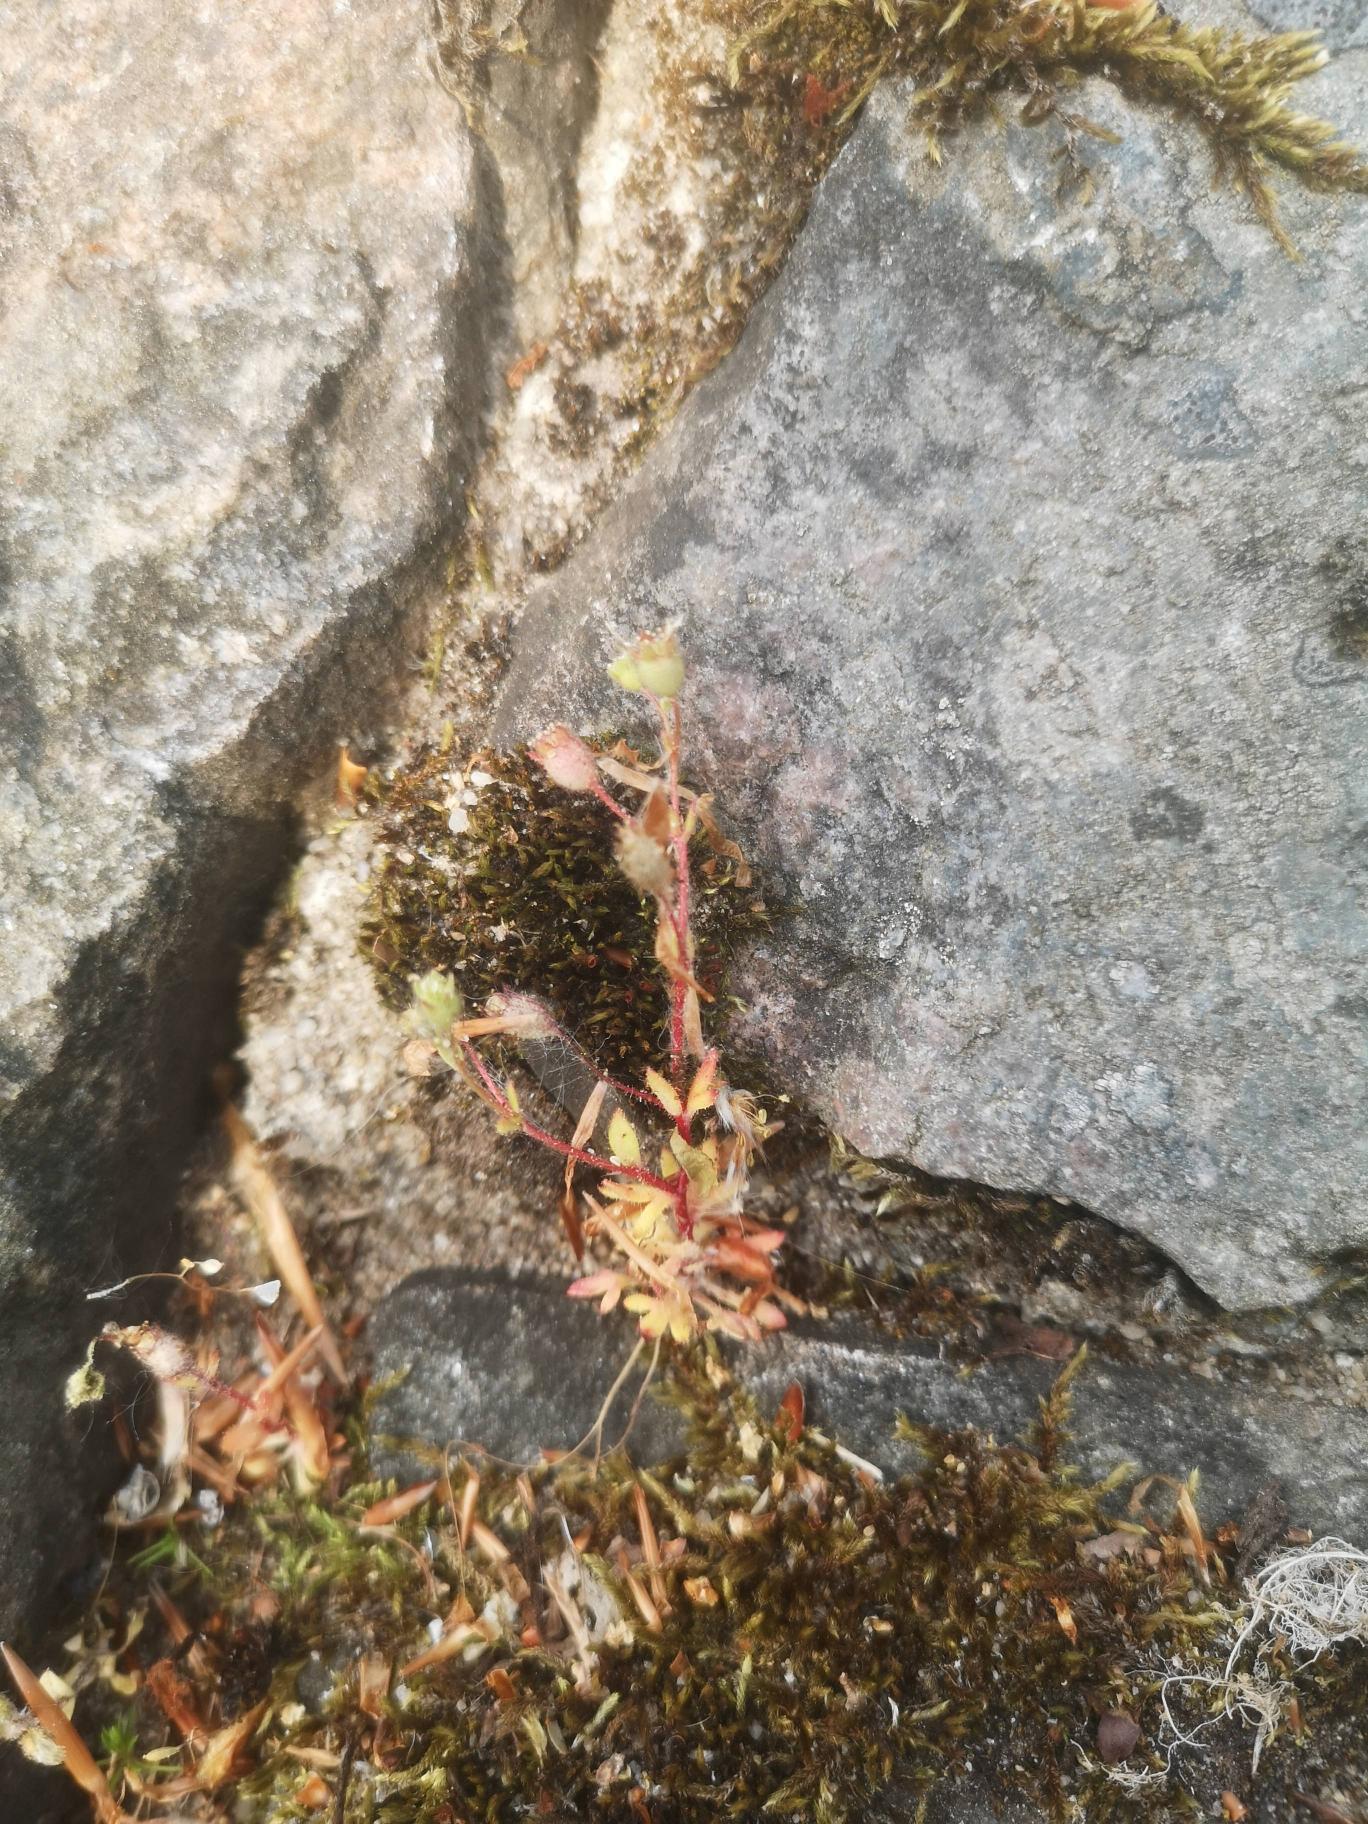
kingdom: Plantae
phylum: Tracheophyta
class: Magnoliopsida
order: Saxifragales
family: Saxifragaceae
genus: Saxifraga
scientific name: Saxifraga tridactylites
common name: Trekløft-stenbræk
